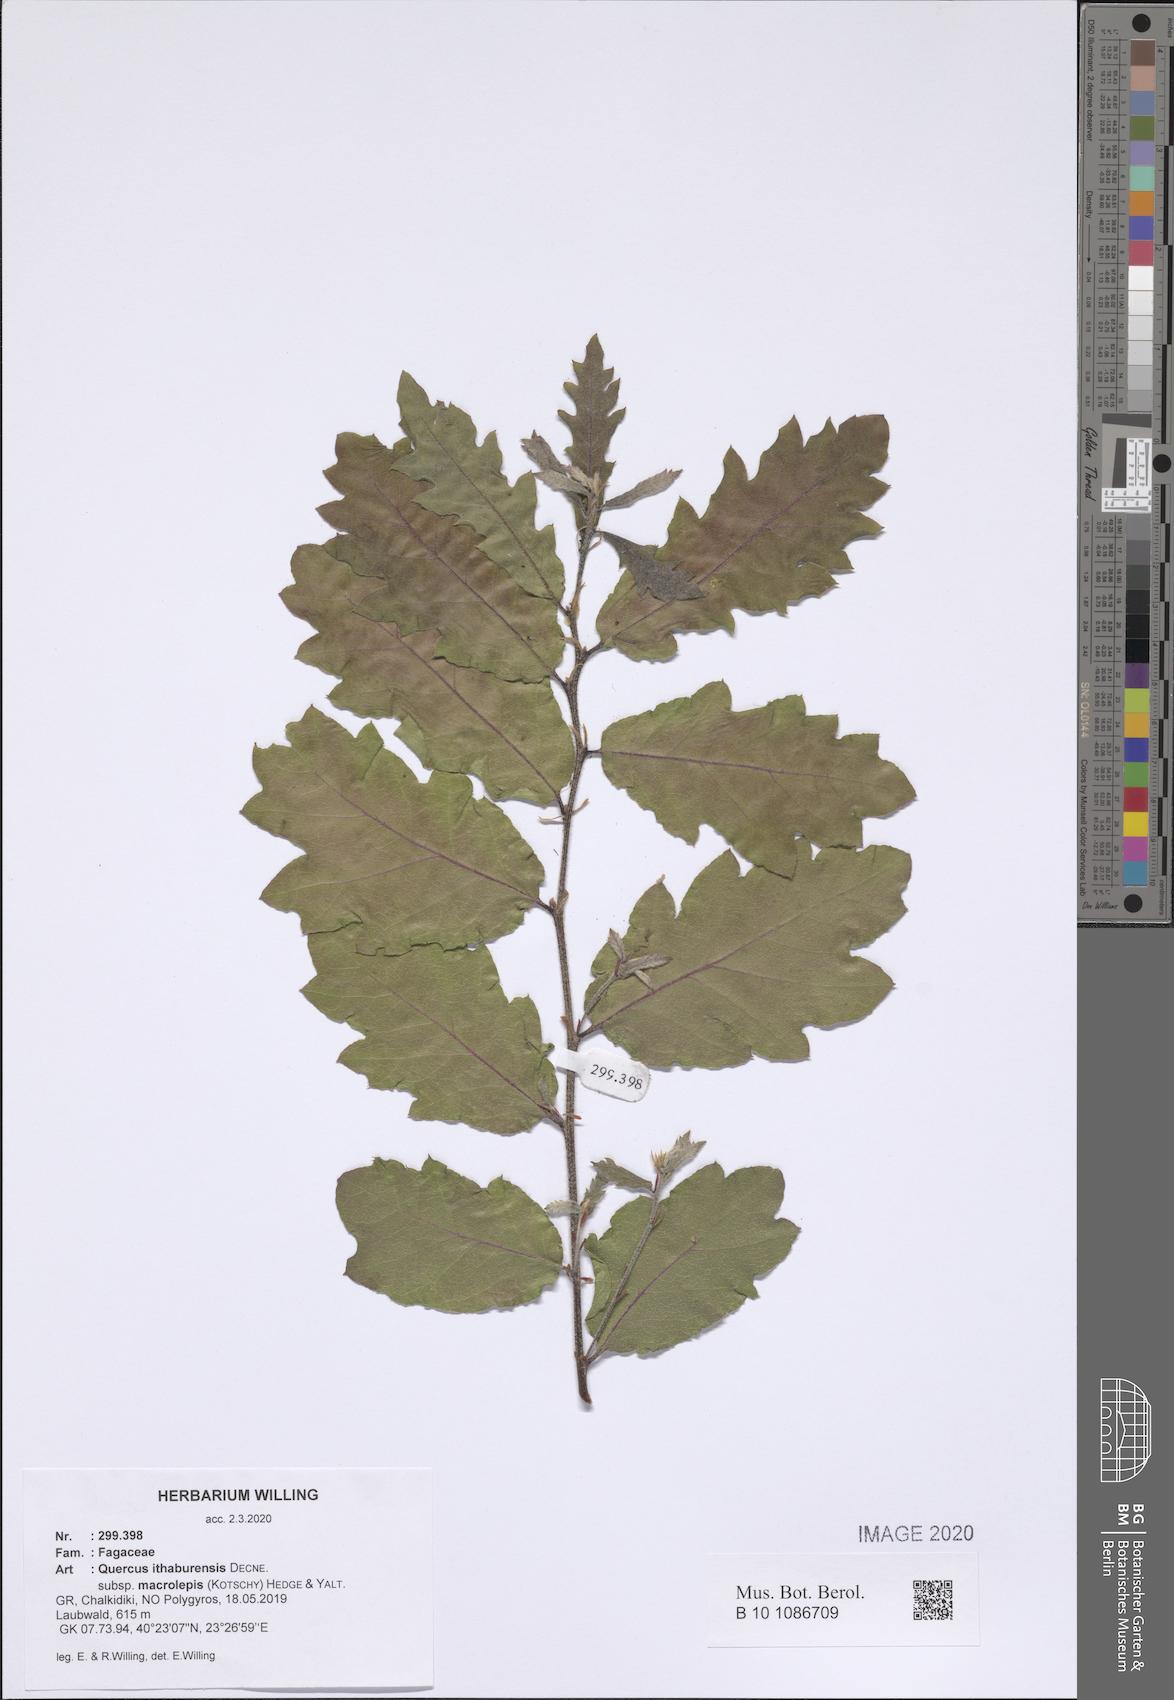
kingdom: Plantae
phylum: Tracheophyta
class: Magnoliopsida
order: Fagales
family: Fagaceae
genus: Quercus
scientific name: Quercus ithaburensis
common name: Tabor oak
